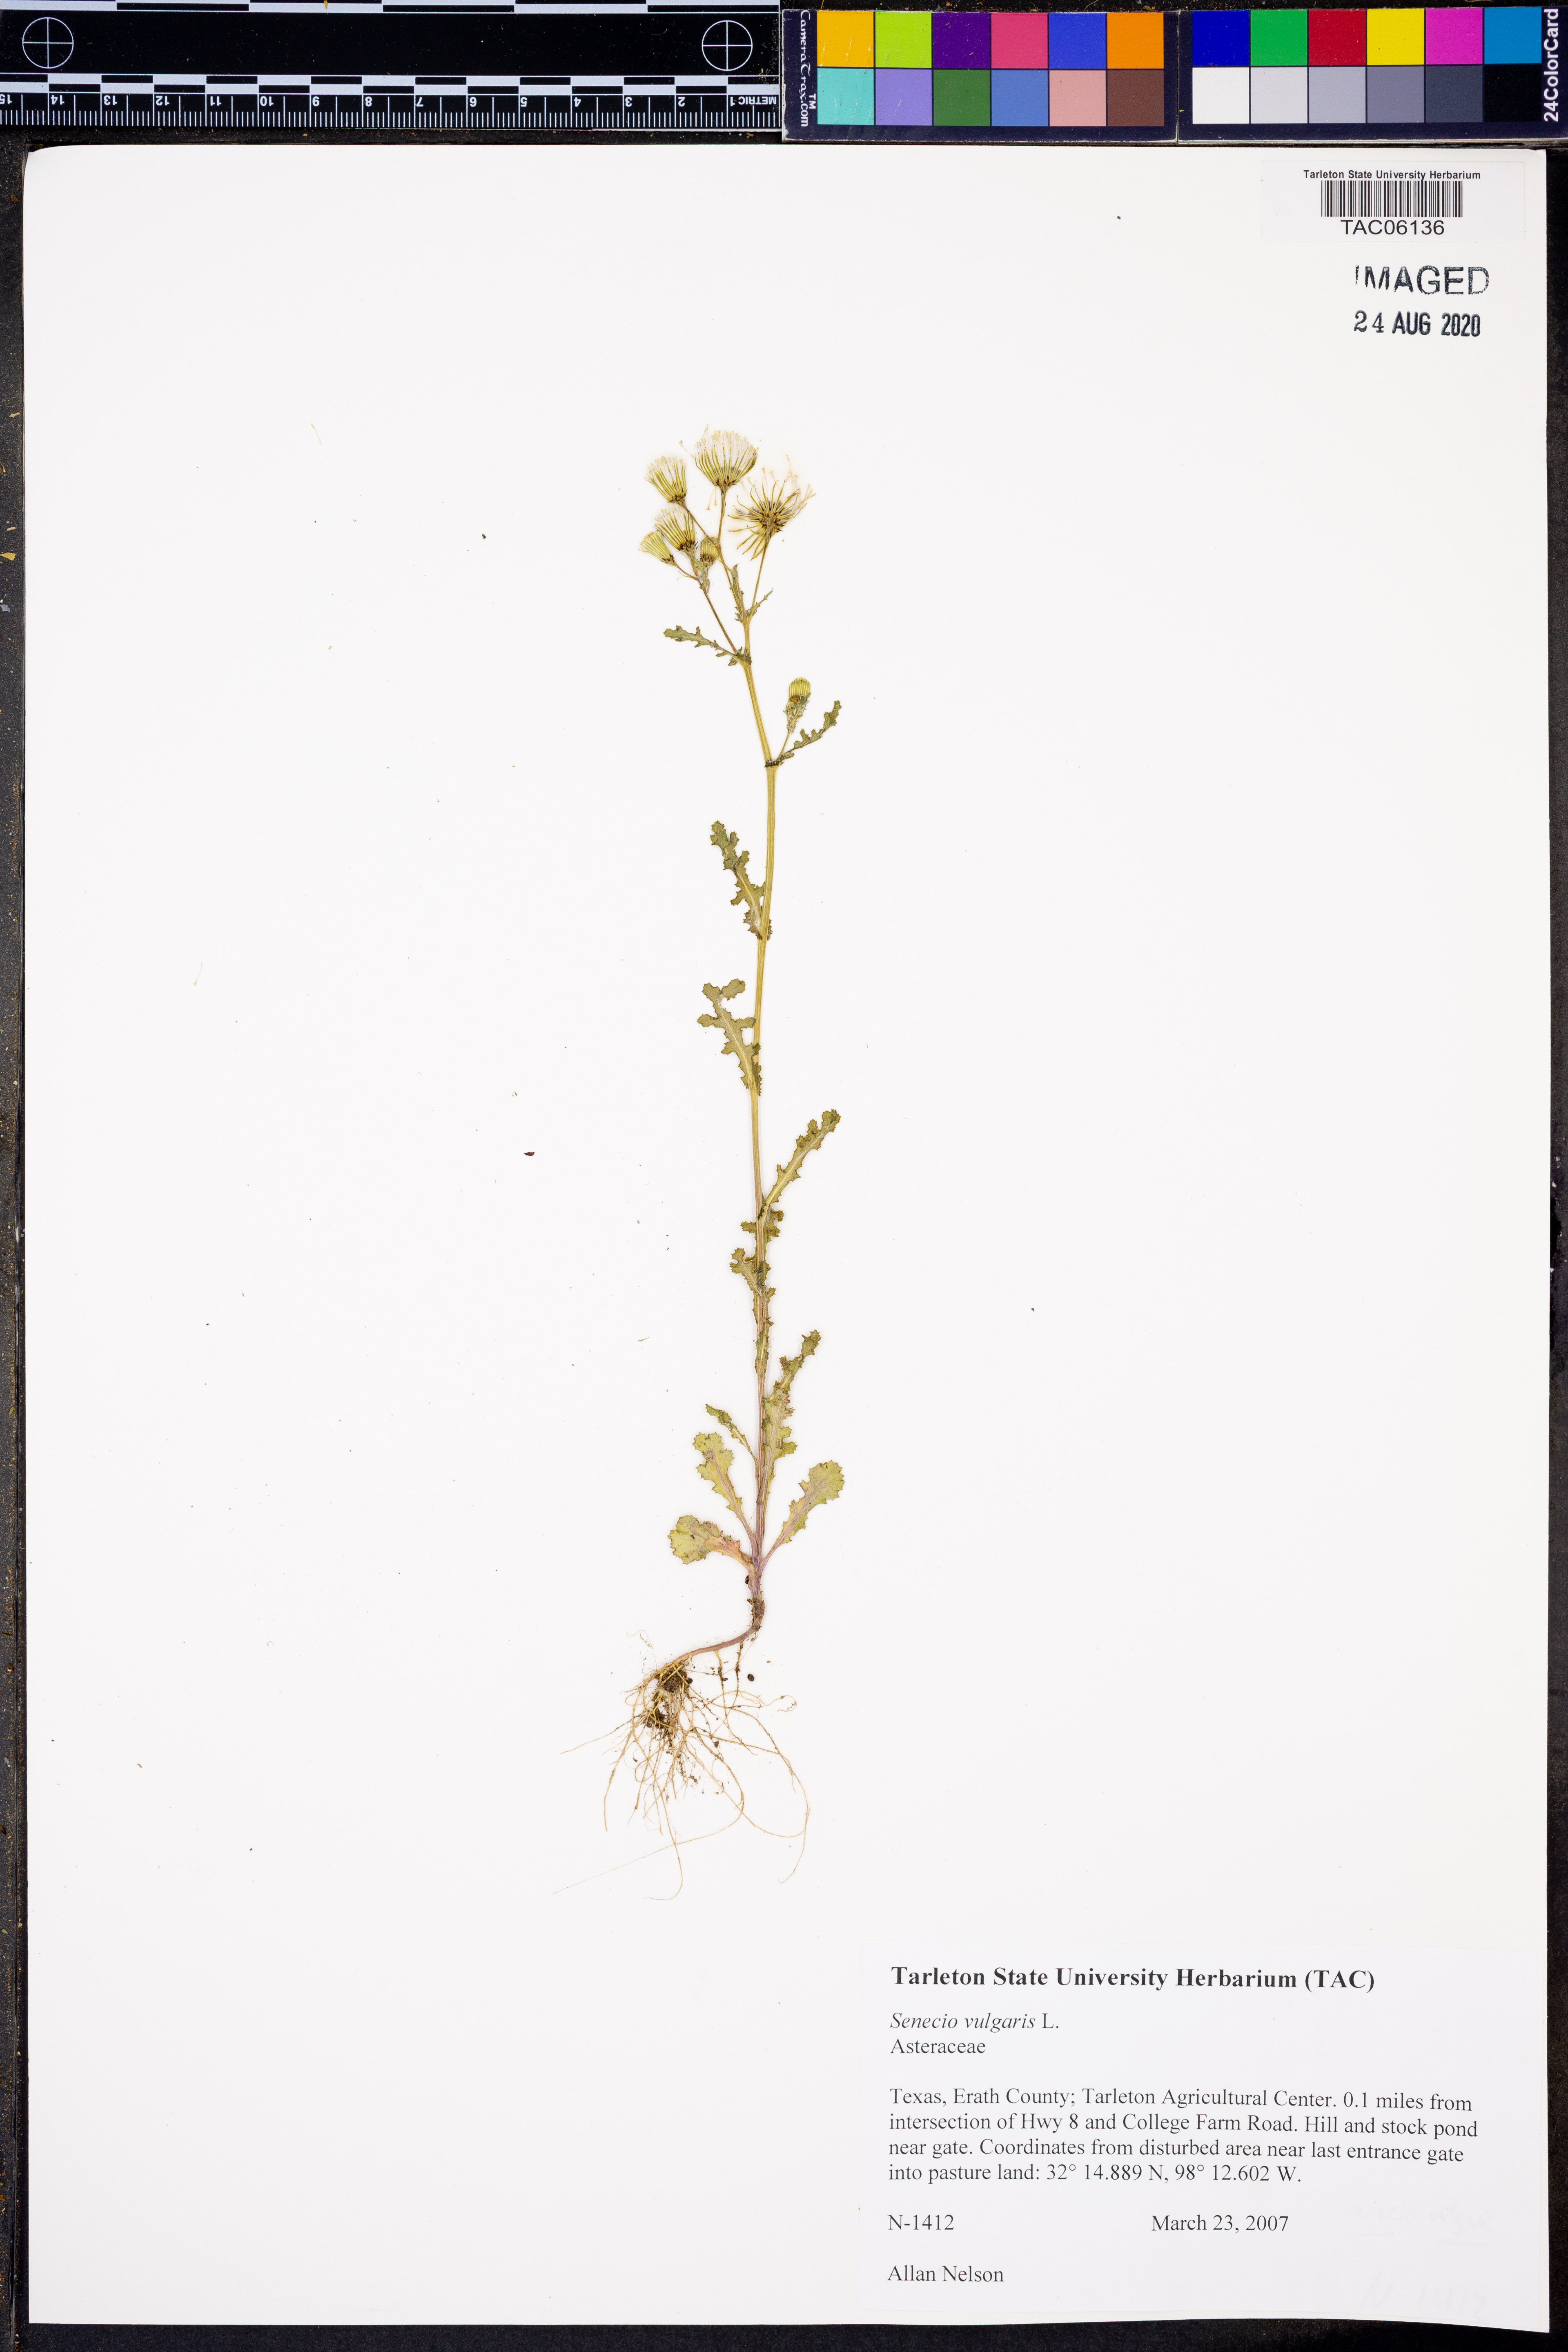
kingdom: Plantae
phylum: Tracheophyta
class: Magnoliopsida
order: Asterales
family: Asteraceae
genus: Senecio
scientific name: Senecio vulgaris
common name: Old-man-in-the-spring
